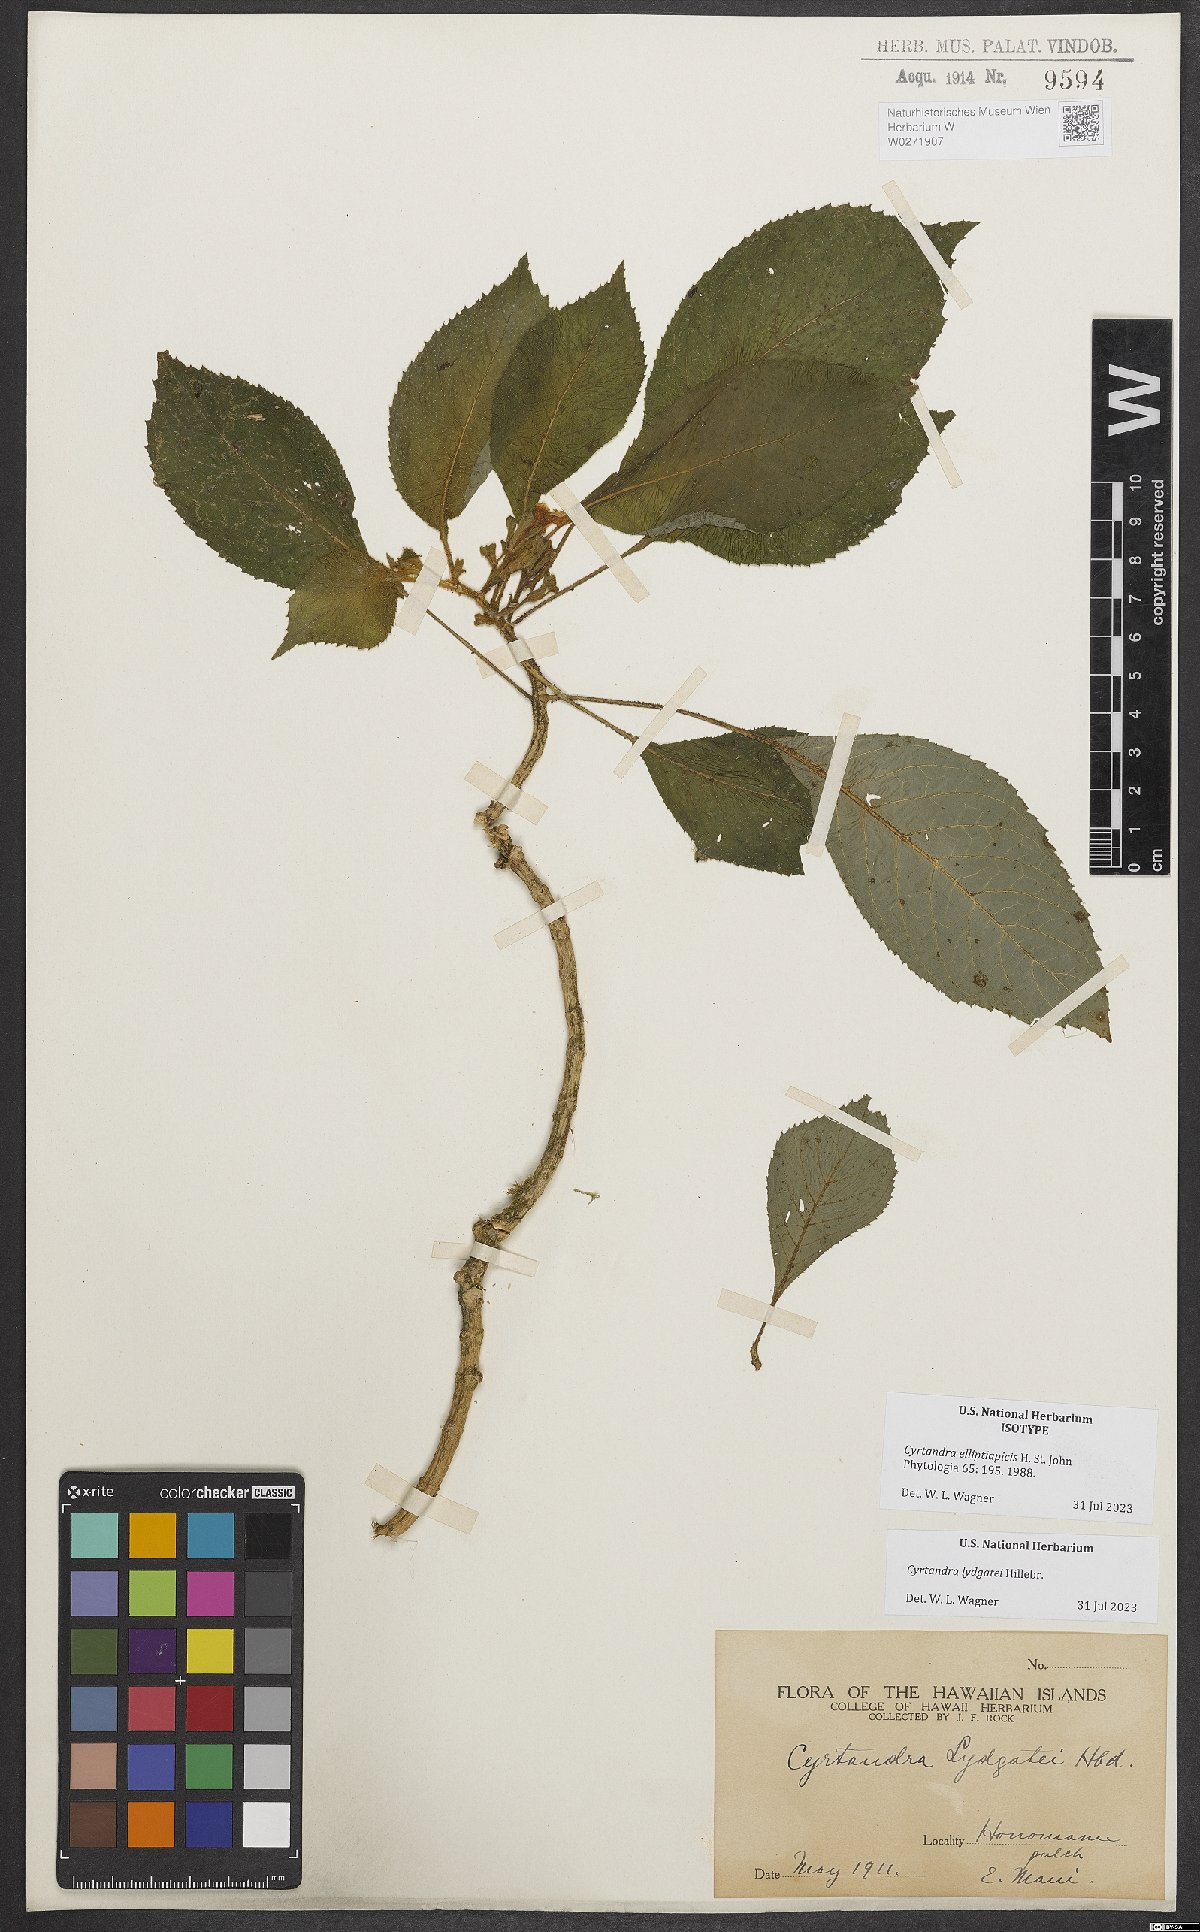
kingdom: Plantae
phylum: Tracheophyta
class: Magnoliopsida
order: Lamiales
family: Gesneriaceae
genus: Cyrtandra
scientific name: Cyrtandra lydgatei
